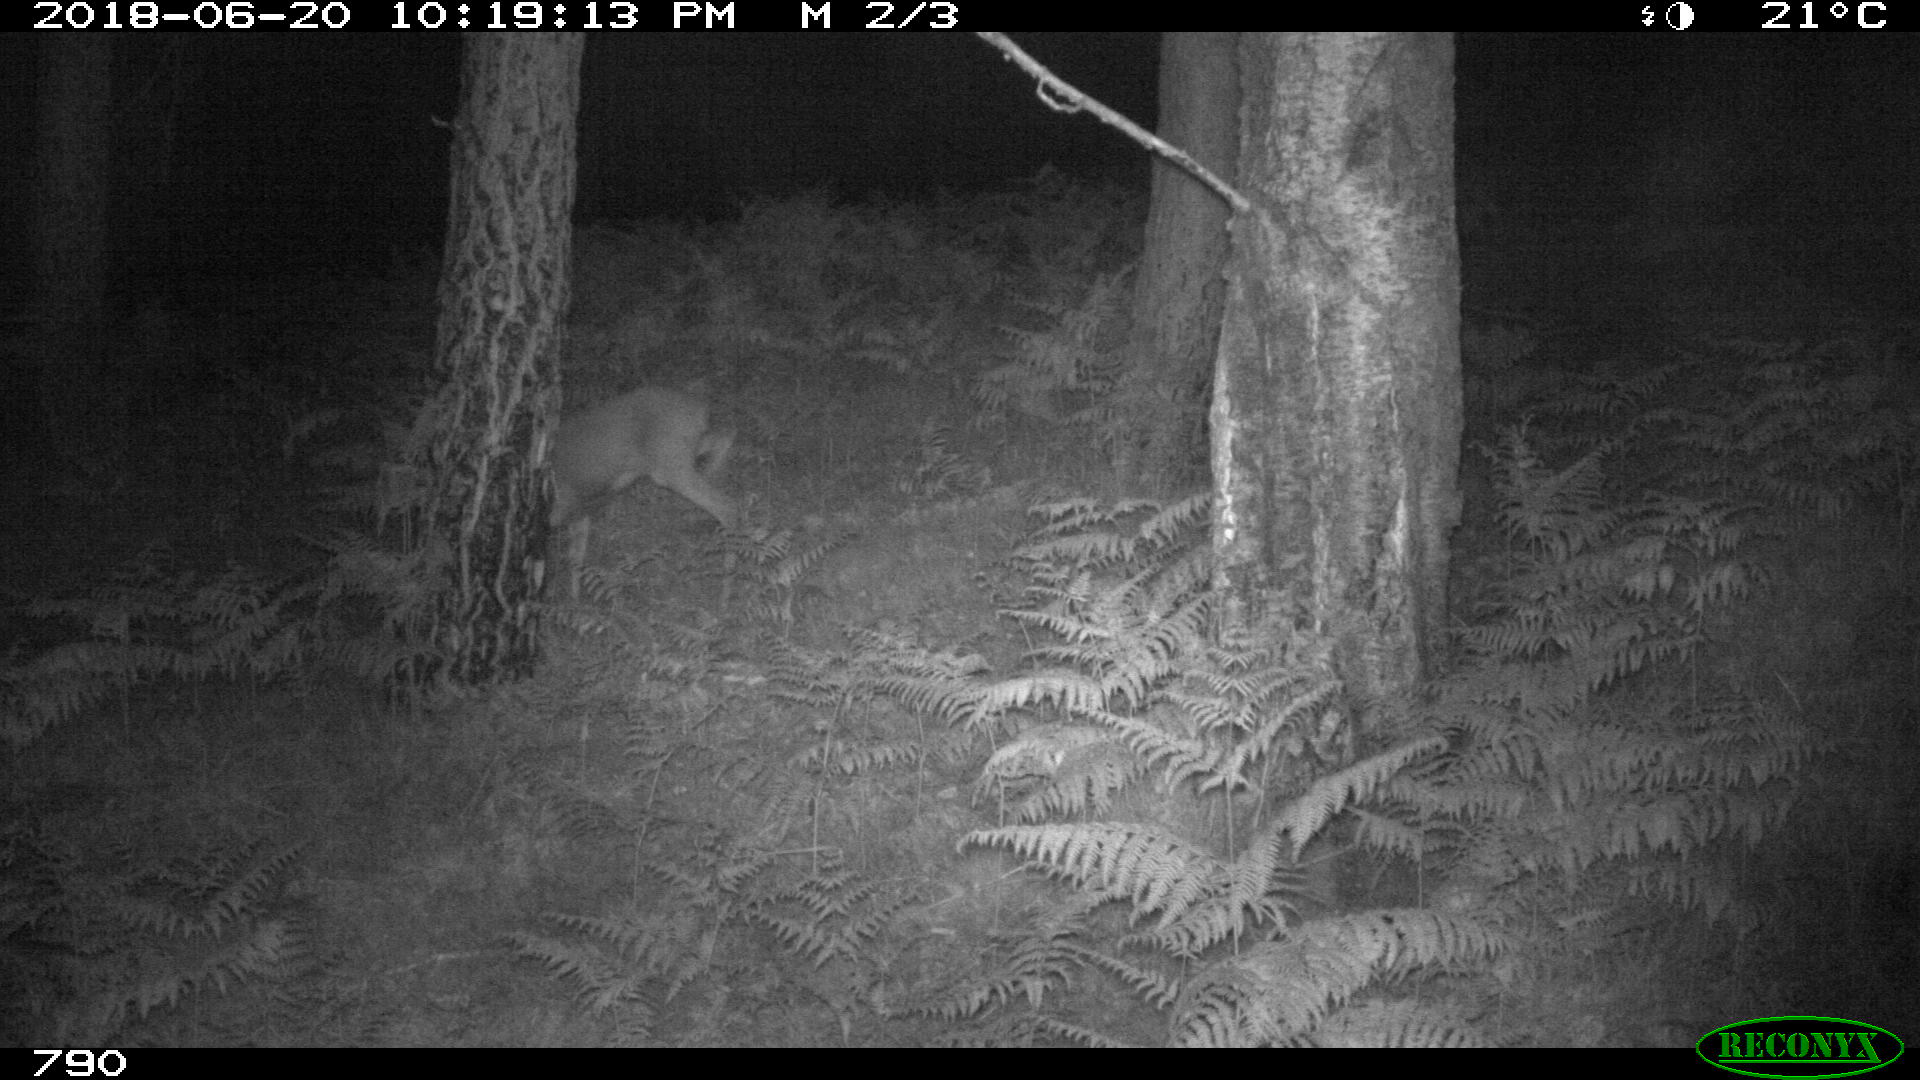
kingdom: Animalia
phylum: Chordata
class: Mammalia
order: Artiodactyla
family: Cervidae
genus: Capreolus
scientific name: Capreolus capreolus
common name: Western roe deer
